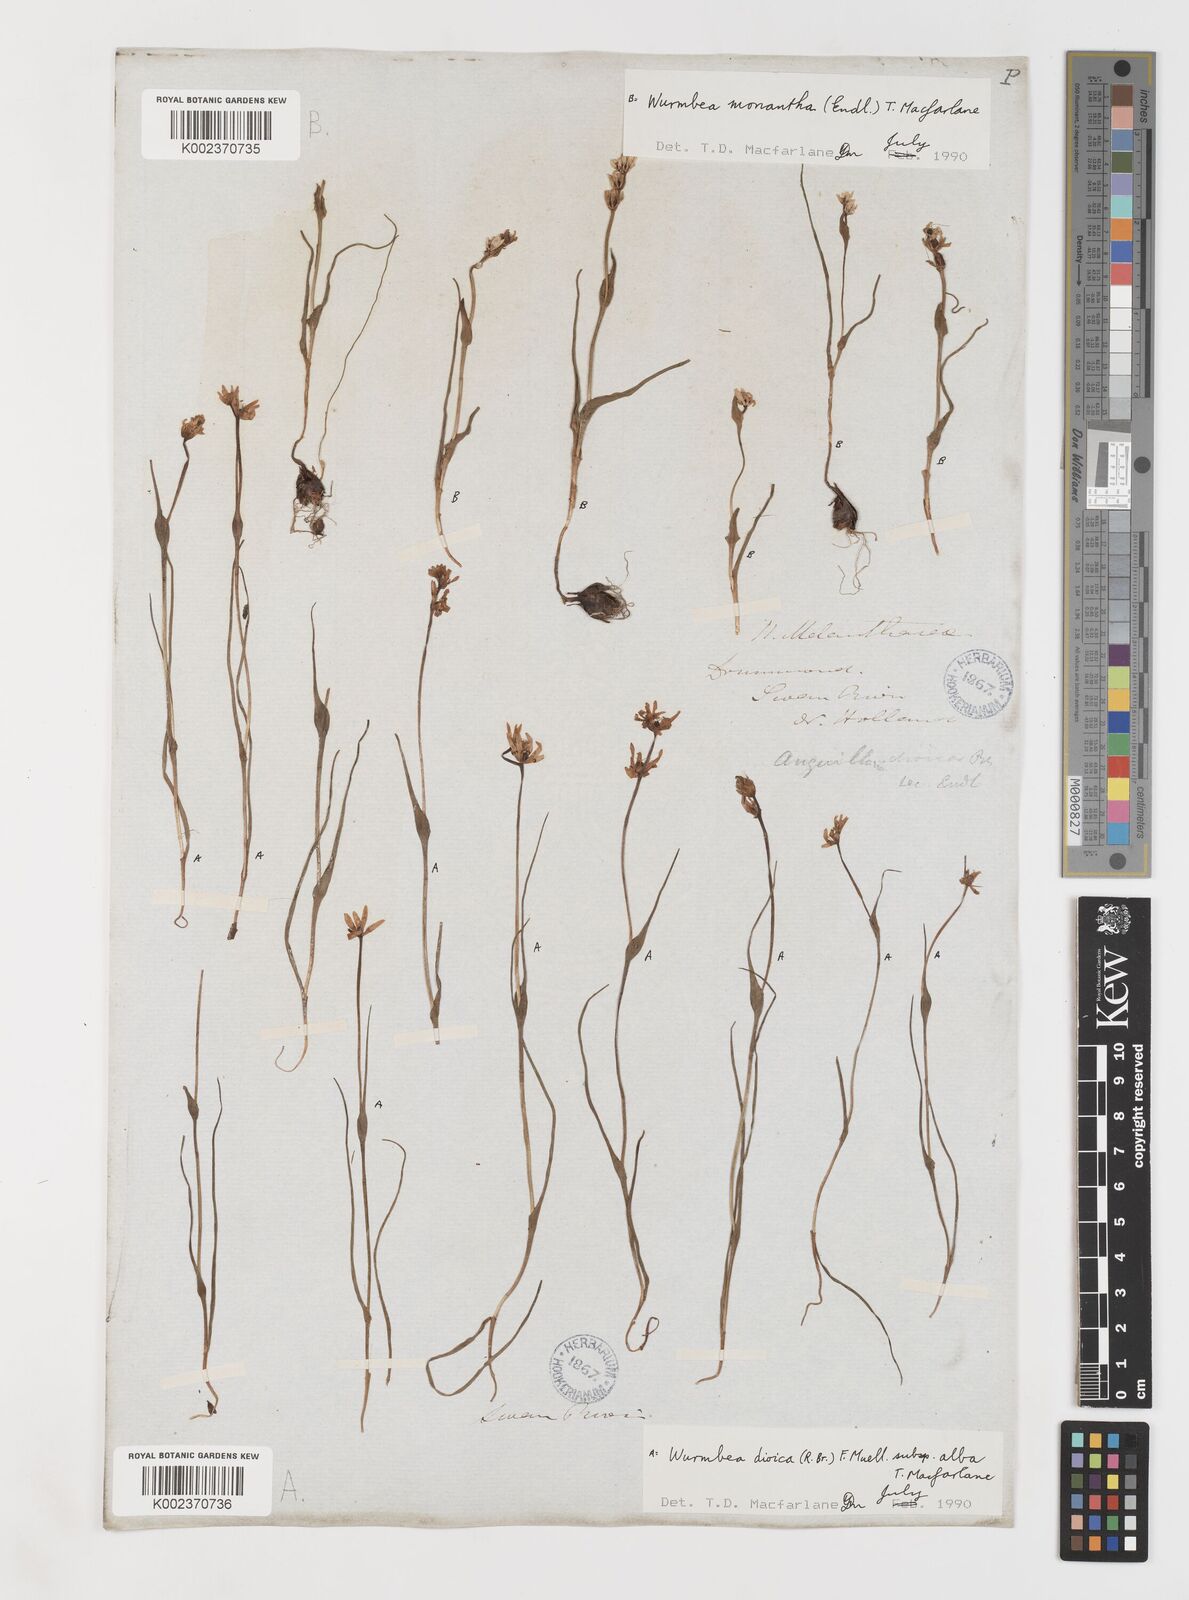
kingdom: Plantae
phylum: Tracheophyta
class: Liliopsida
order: Liliales
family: Colchicaceae
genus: Wurmbea
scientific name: Wurmbea dioica
